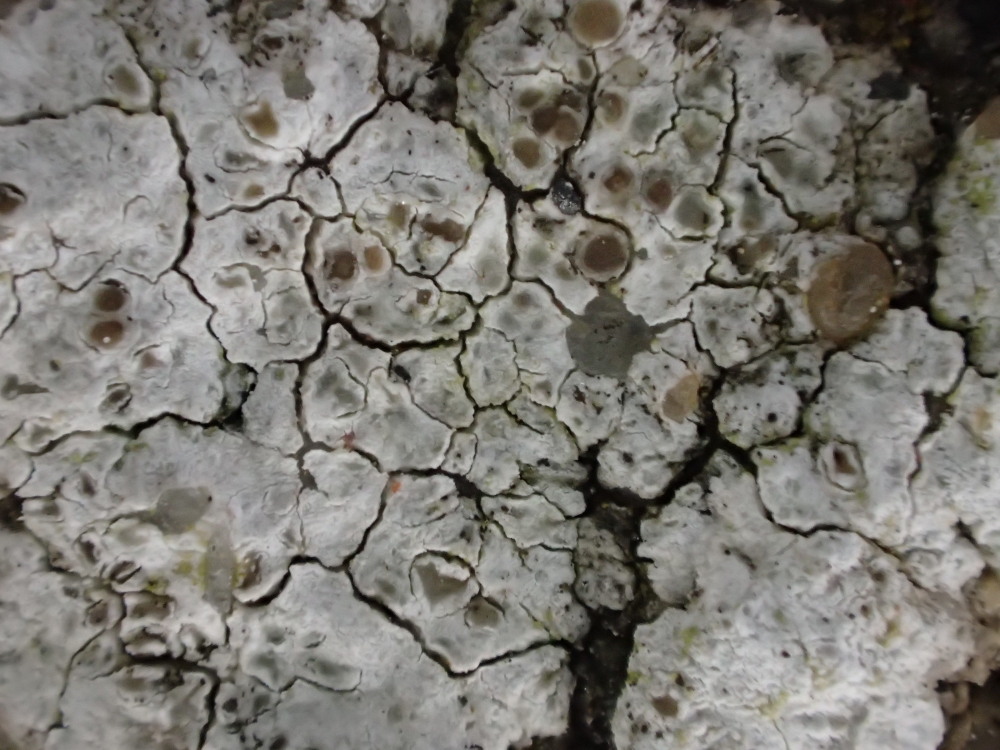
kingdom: Fungi
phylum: Ascomycota
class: Lecanoromycetes
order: Lecanorales
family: Lecanoraceae
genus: Polyozosia
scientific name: Polyozosia albescens
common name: cement-kantskivelav
